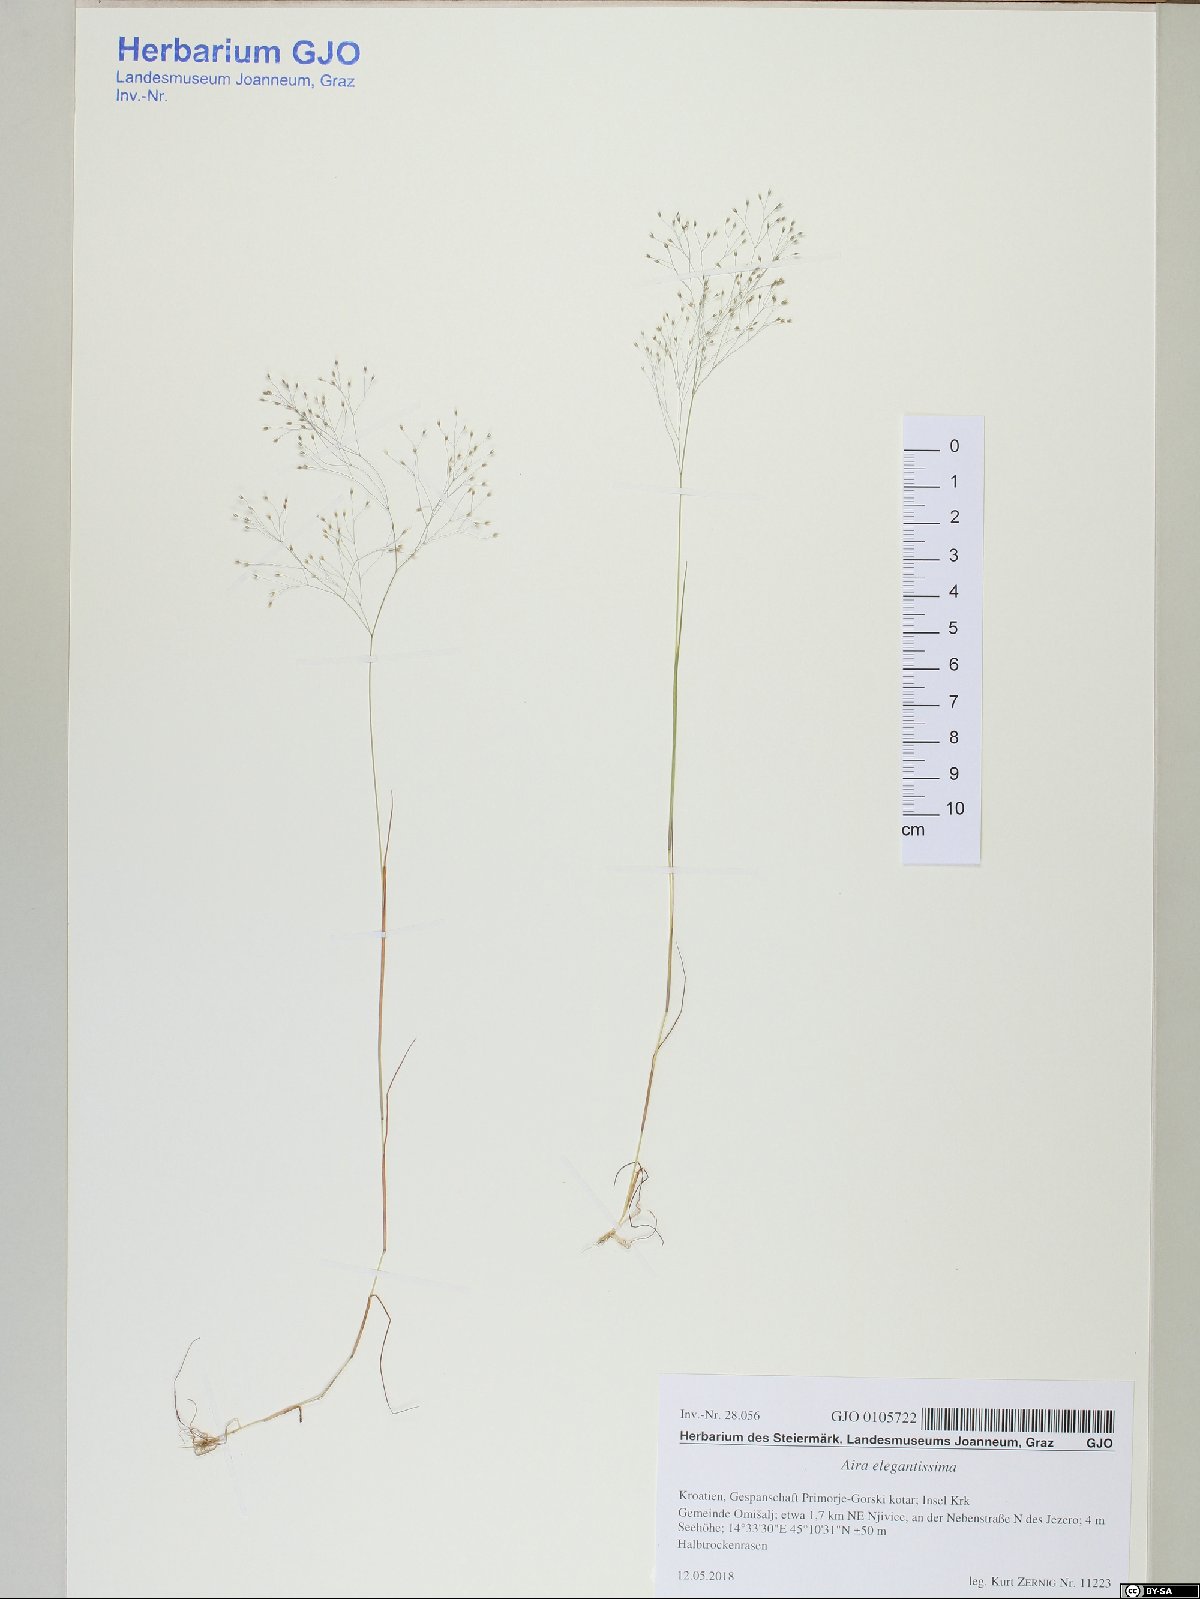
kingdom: Plantae
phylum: Tracheophyta
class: Liliopsida
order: Poales
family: Poaceae
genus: Aira
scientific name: Aira elegans
